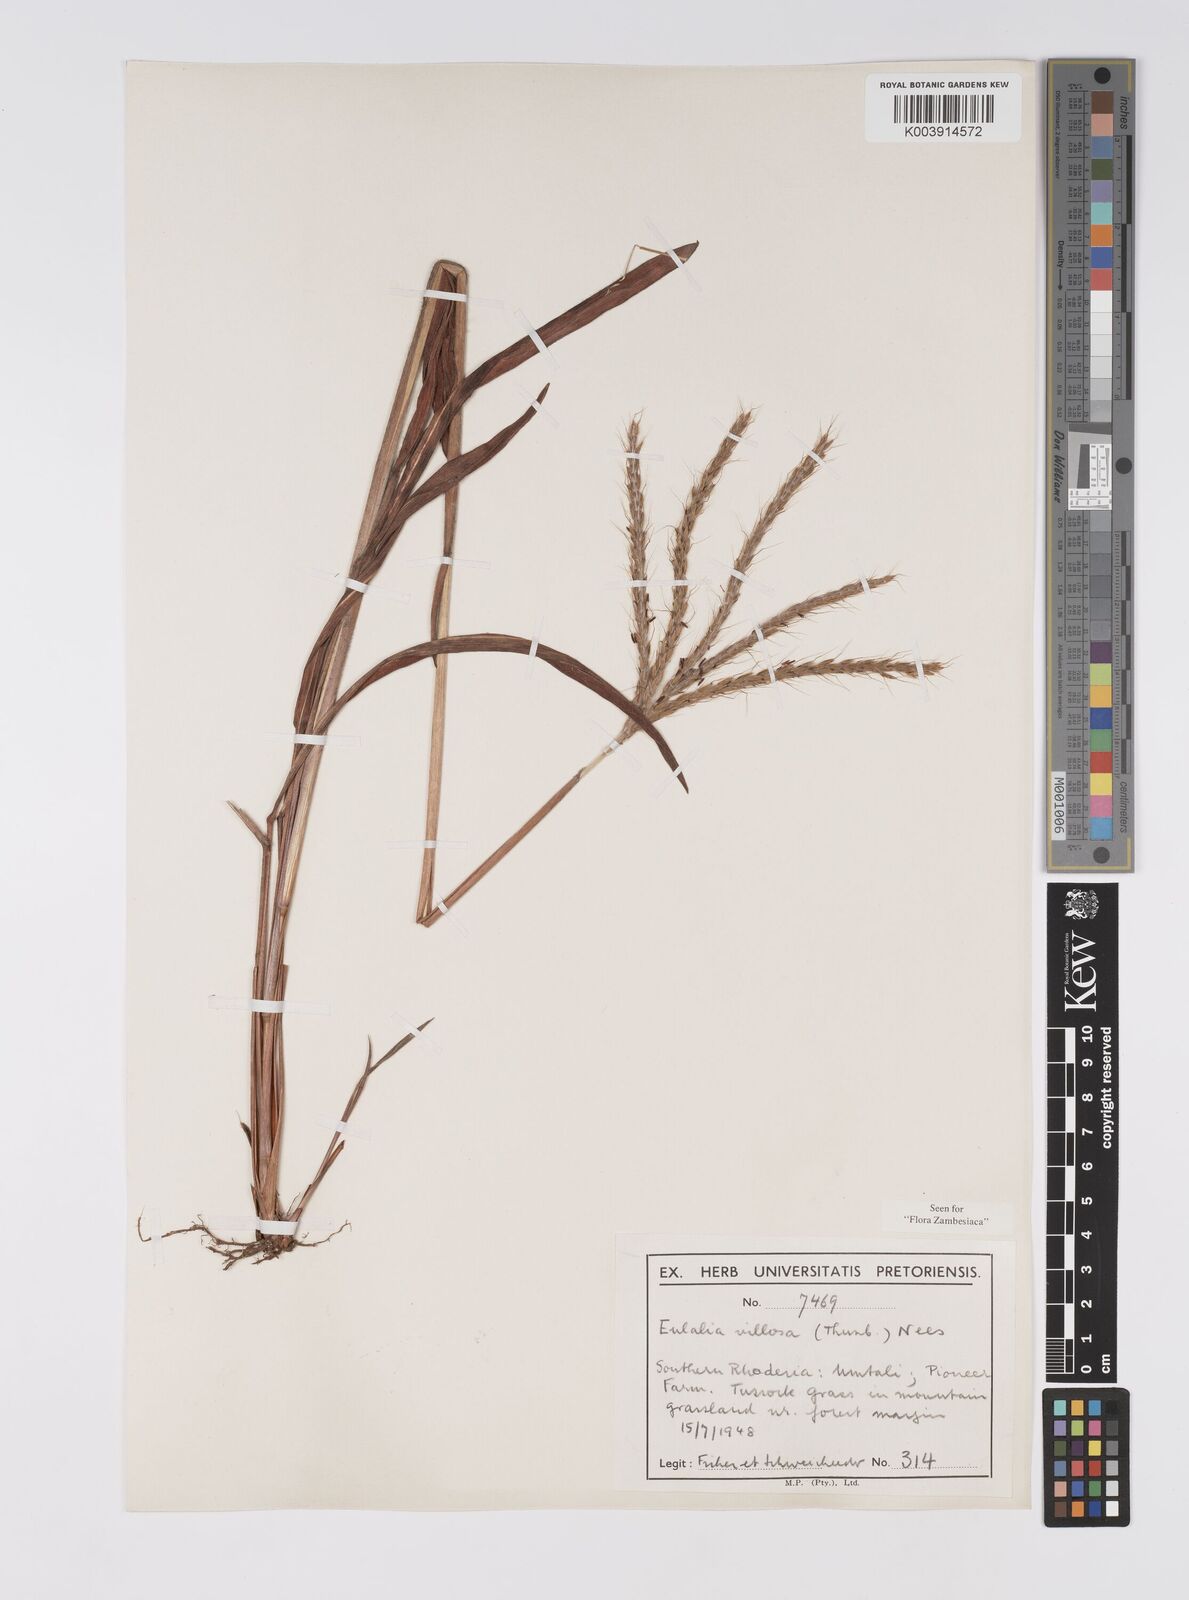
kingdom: Plantae
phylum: Tracheophyta
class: Liliopsida
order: Poales
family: Poaceae
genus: Eulalia
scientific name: Eulalia villosa
